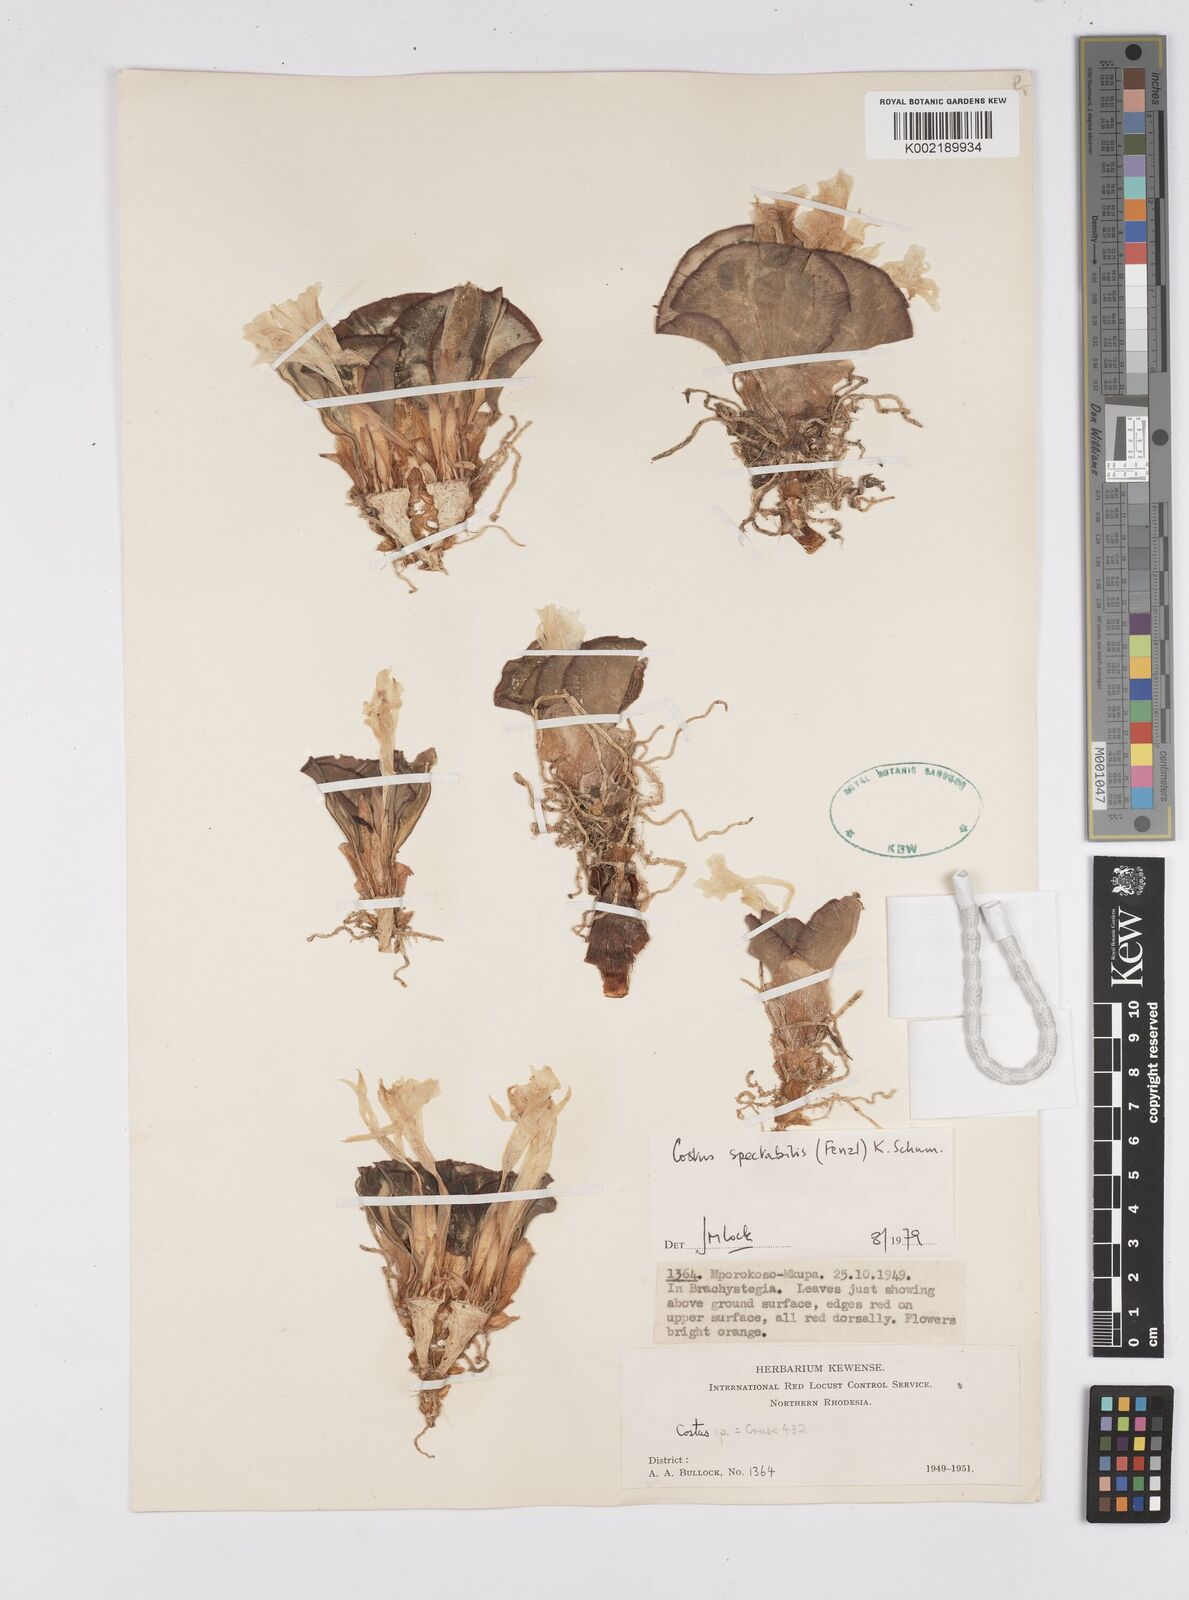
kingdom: Plantae
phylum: Tracheophyta
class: Liliopsida
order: Zingiberales
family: Costaceae
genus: Costus
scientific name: Costus spectabilis
